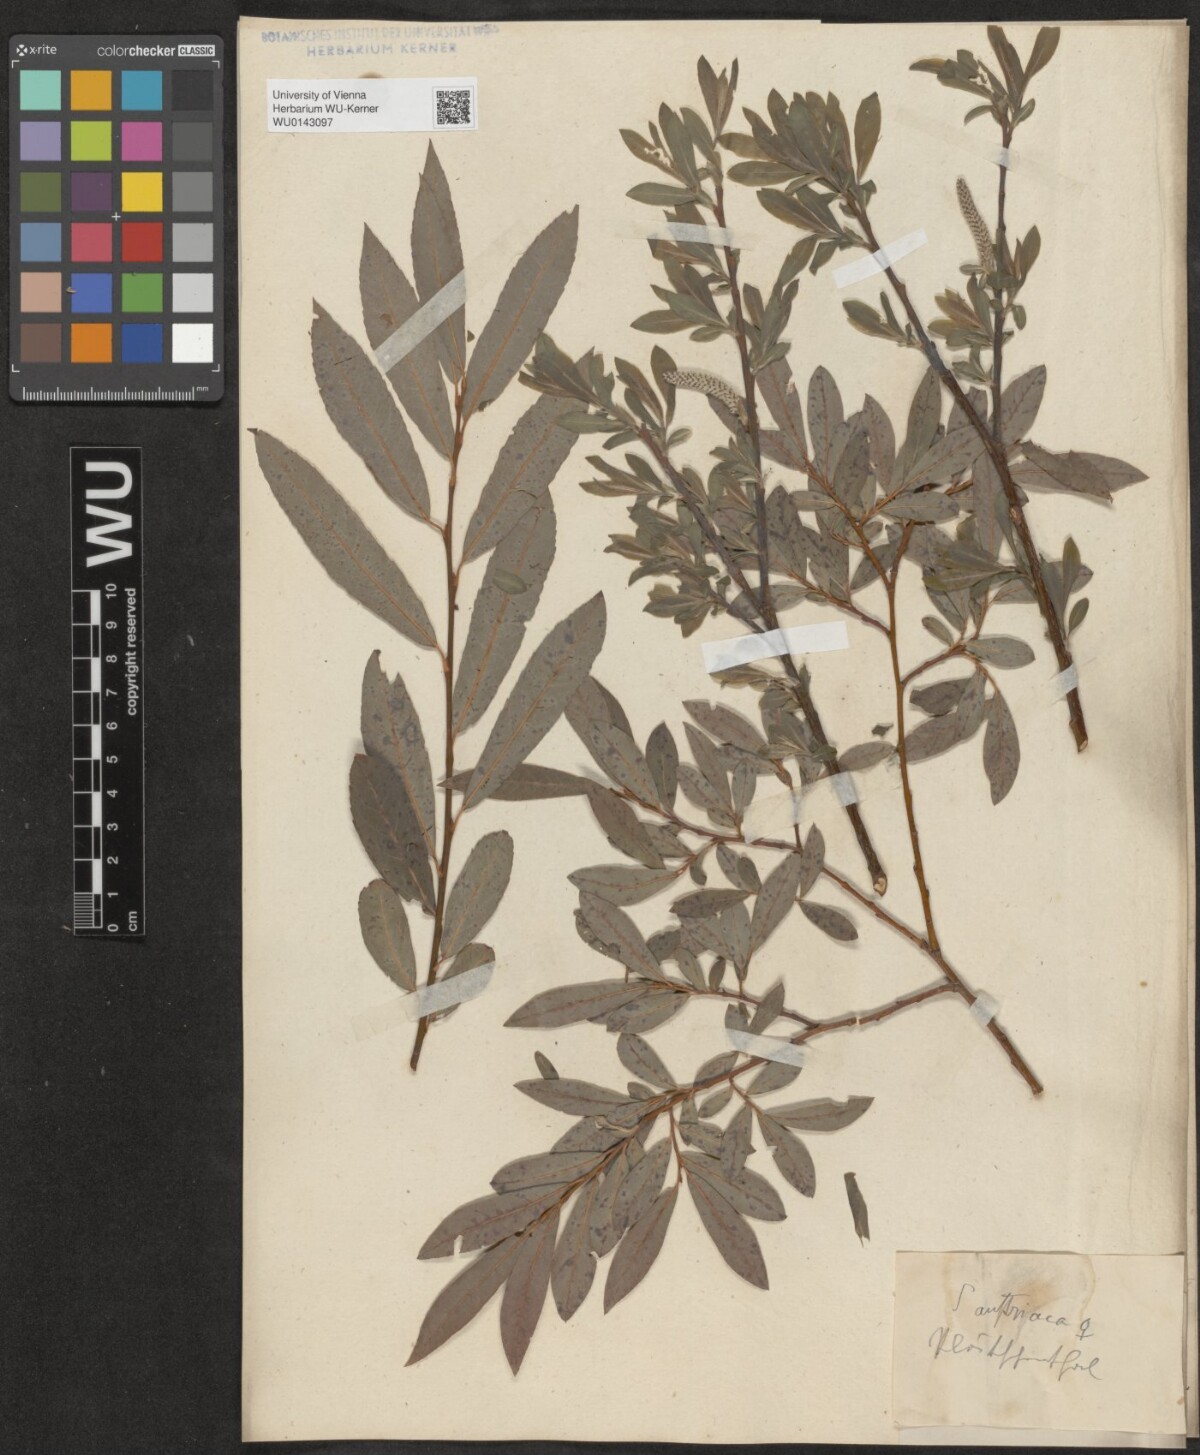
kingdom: Plantae
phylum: Tracheophyta
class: Magnoliopsida
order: Malpighiales
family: Salicaceae
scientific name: Salicaceae
